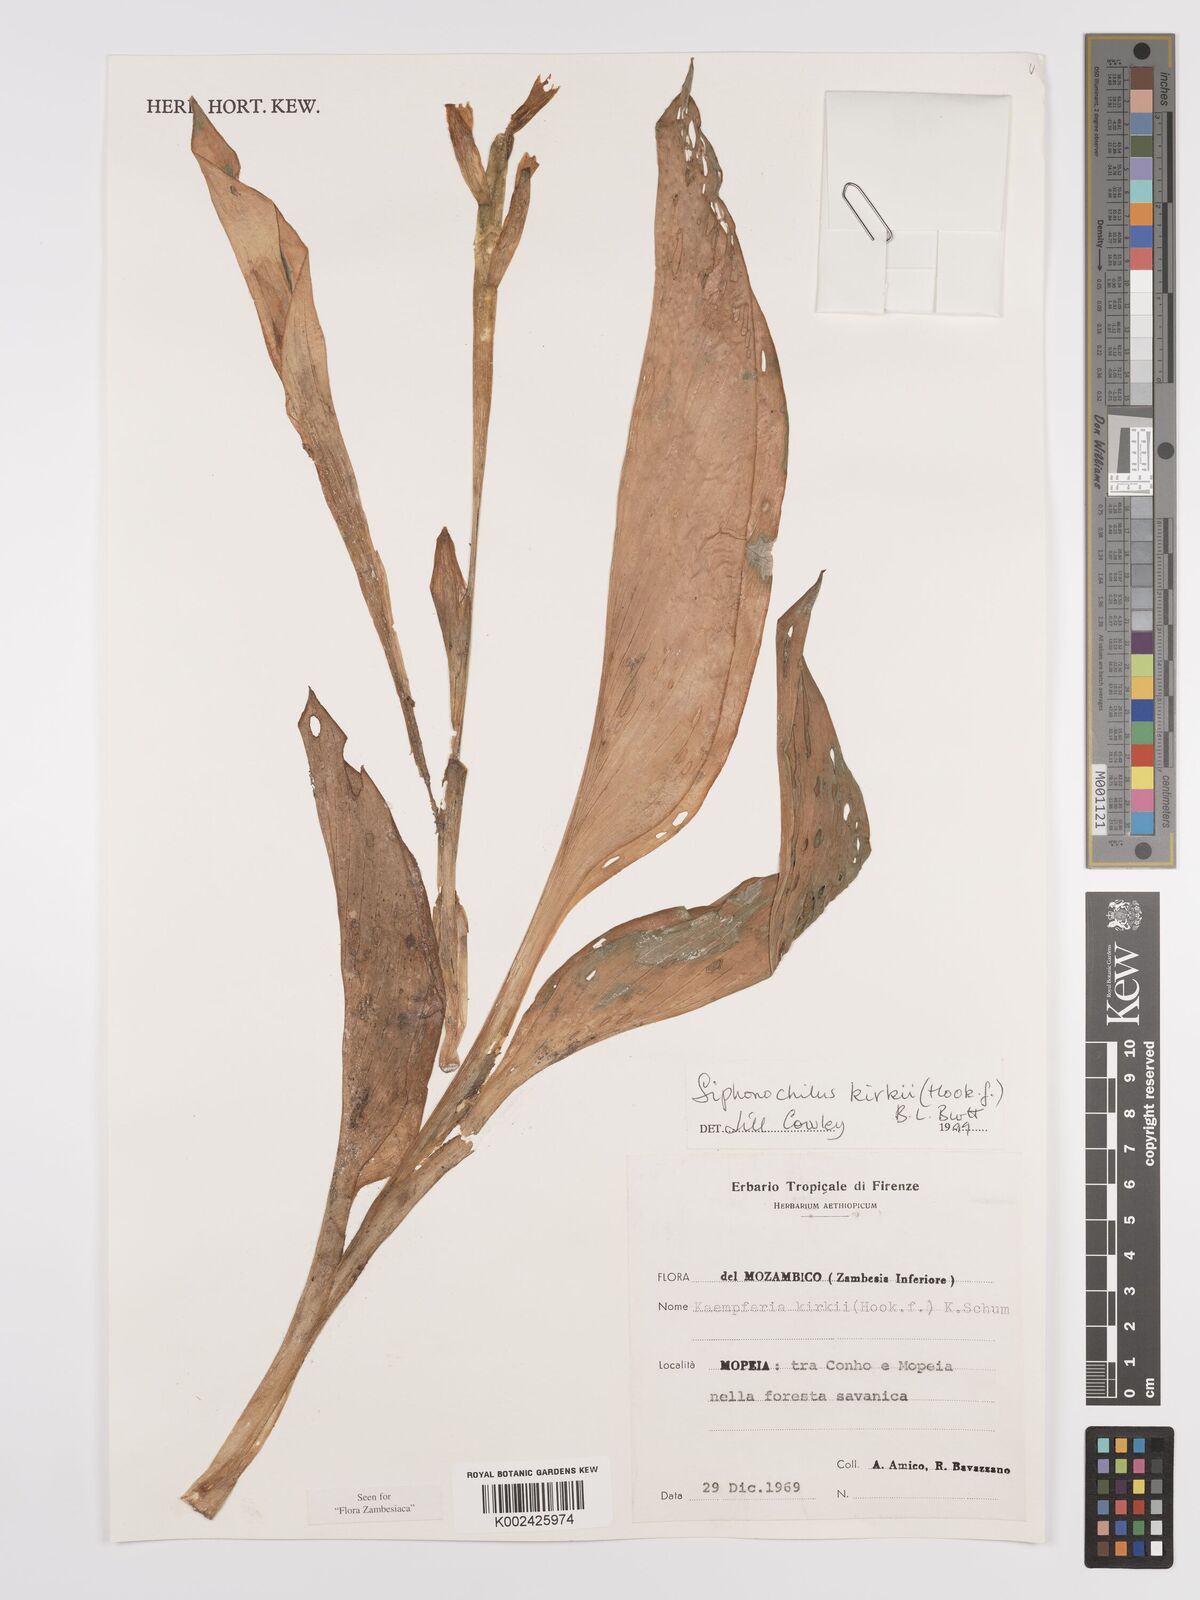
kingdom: Plantae
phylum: Tracheophyta
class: Liliopsida
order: Zingiberales
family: Zingiberaceae
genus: Siphonochilus
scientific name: Siphonochilus kirkii
